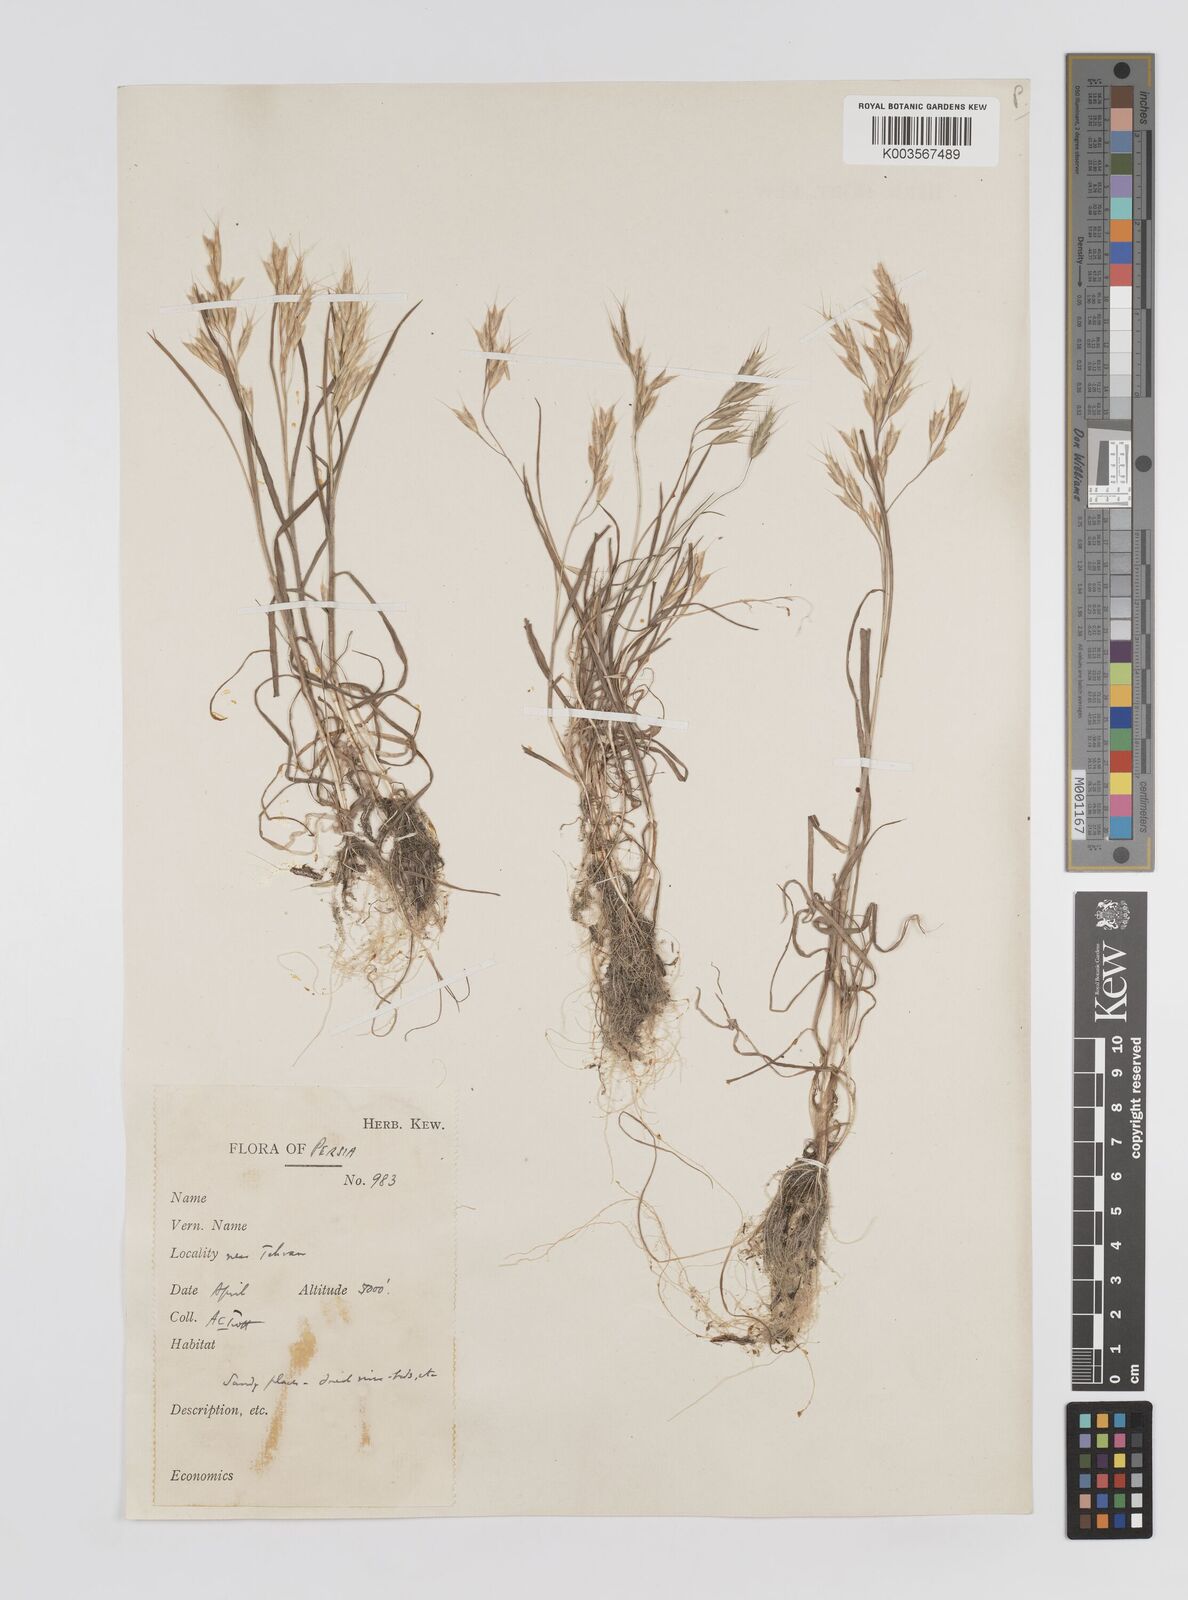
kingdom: Plantae
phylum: Tracheophyta
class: Liliopsida
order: Poales
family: Poaceae
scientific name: Poaceae
